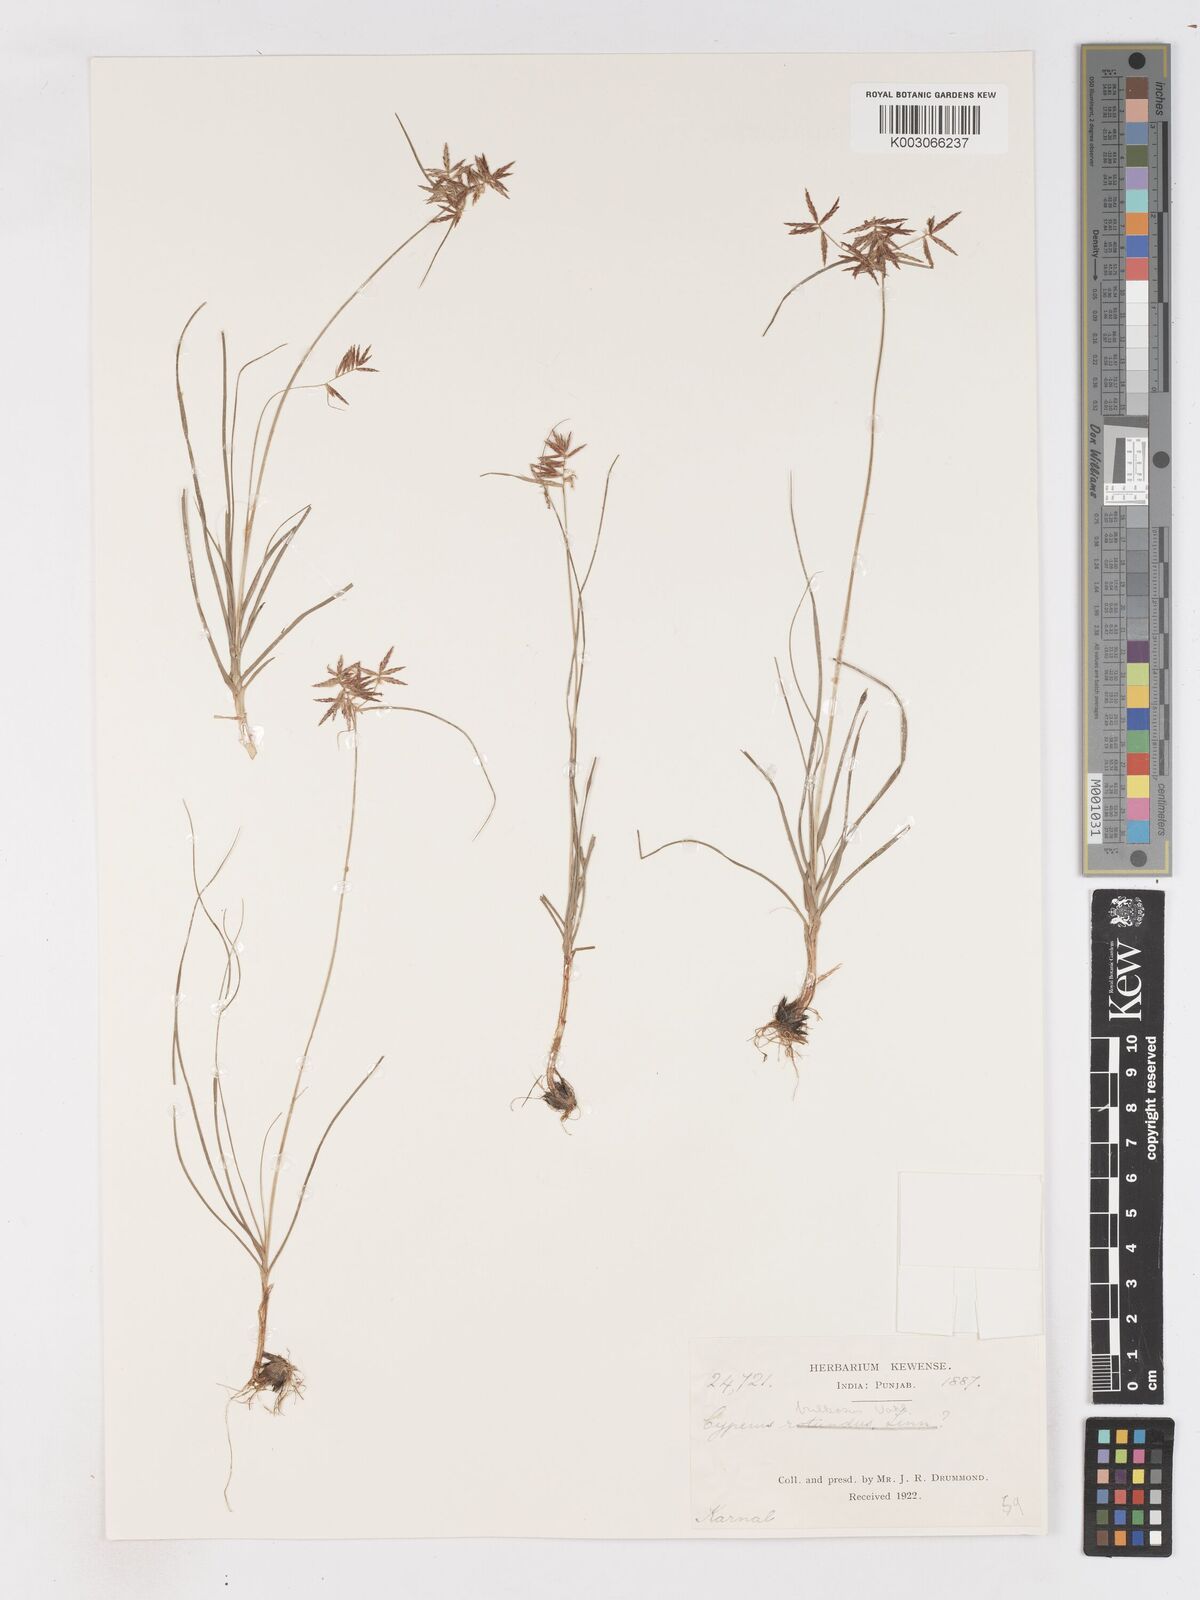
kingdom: Plantae
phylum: Tracheophyta
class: Liliopsida
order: Poales
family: Cyperaceae
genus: Cyperus
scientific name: Cyperus bulbosus
